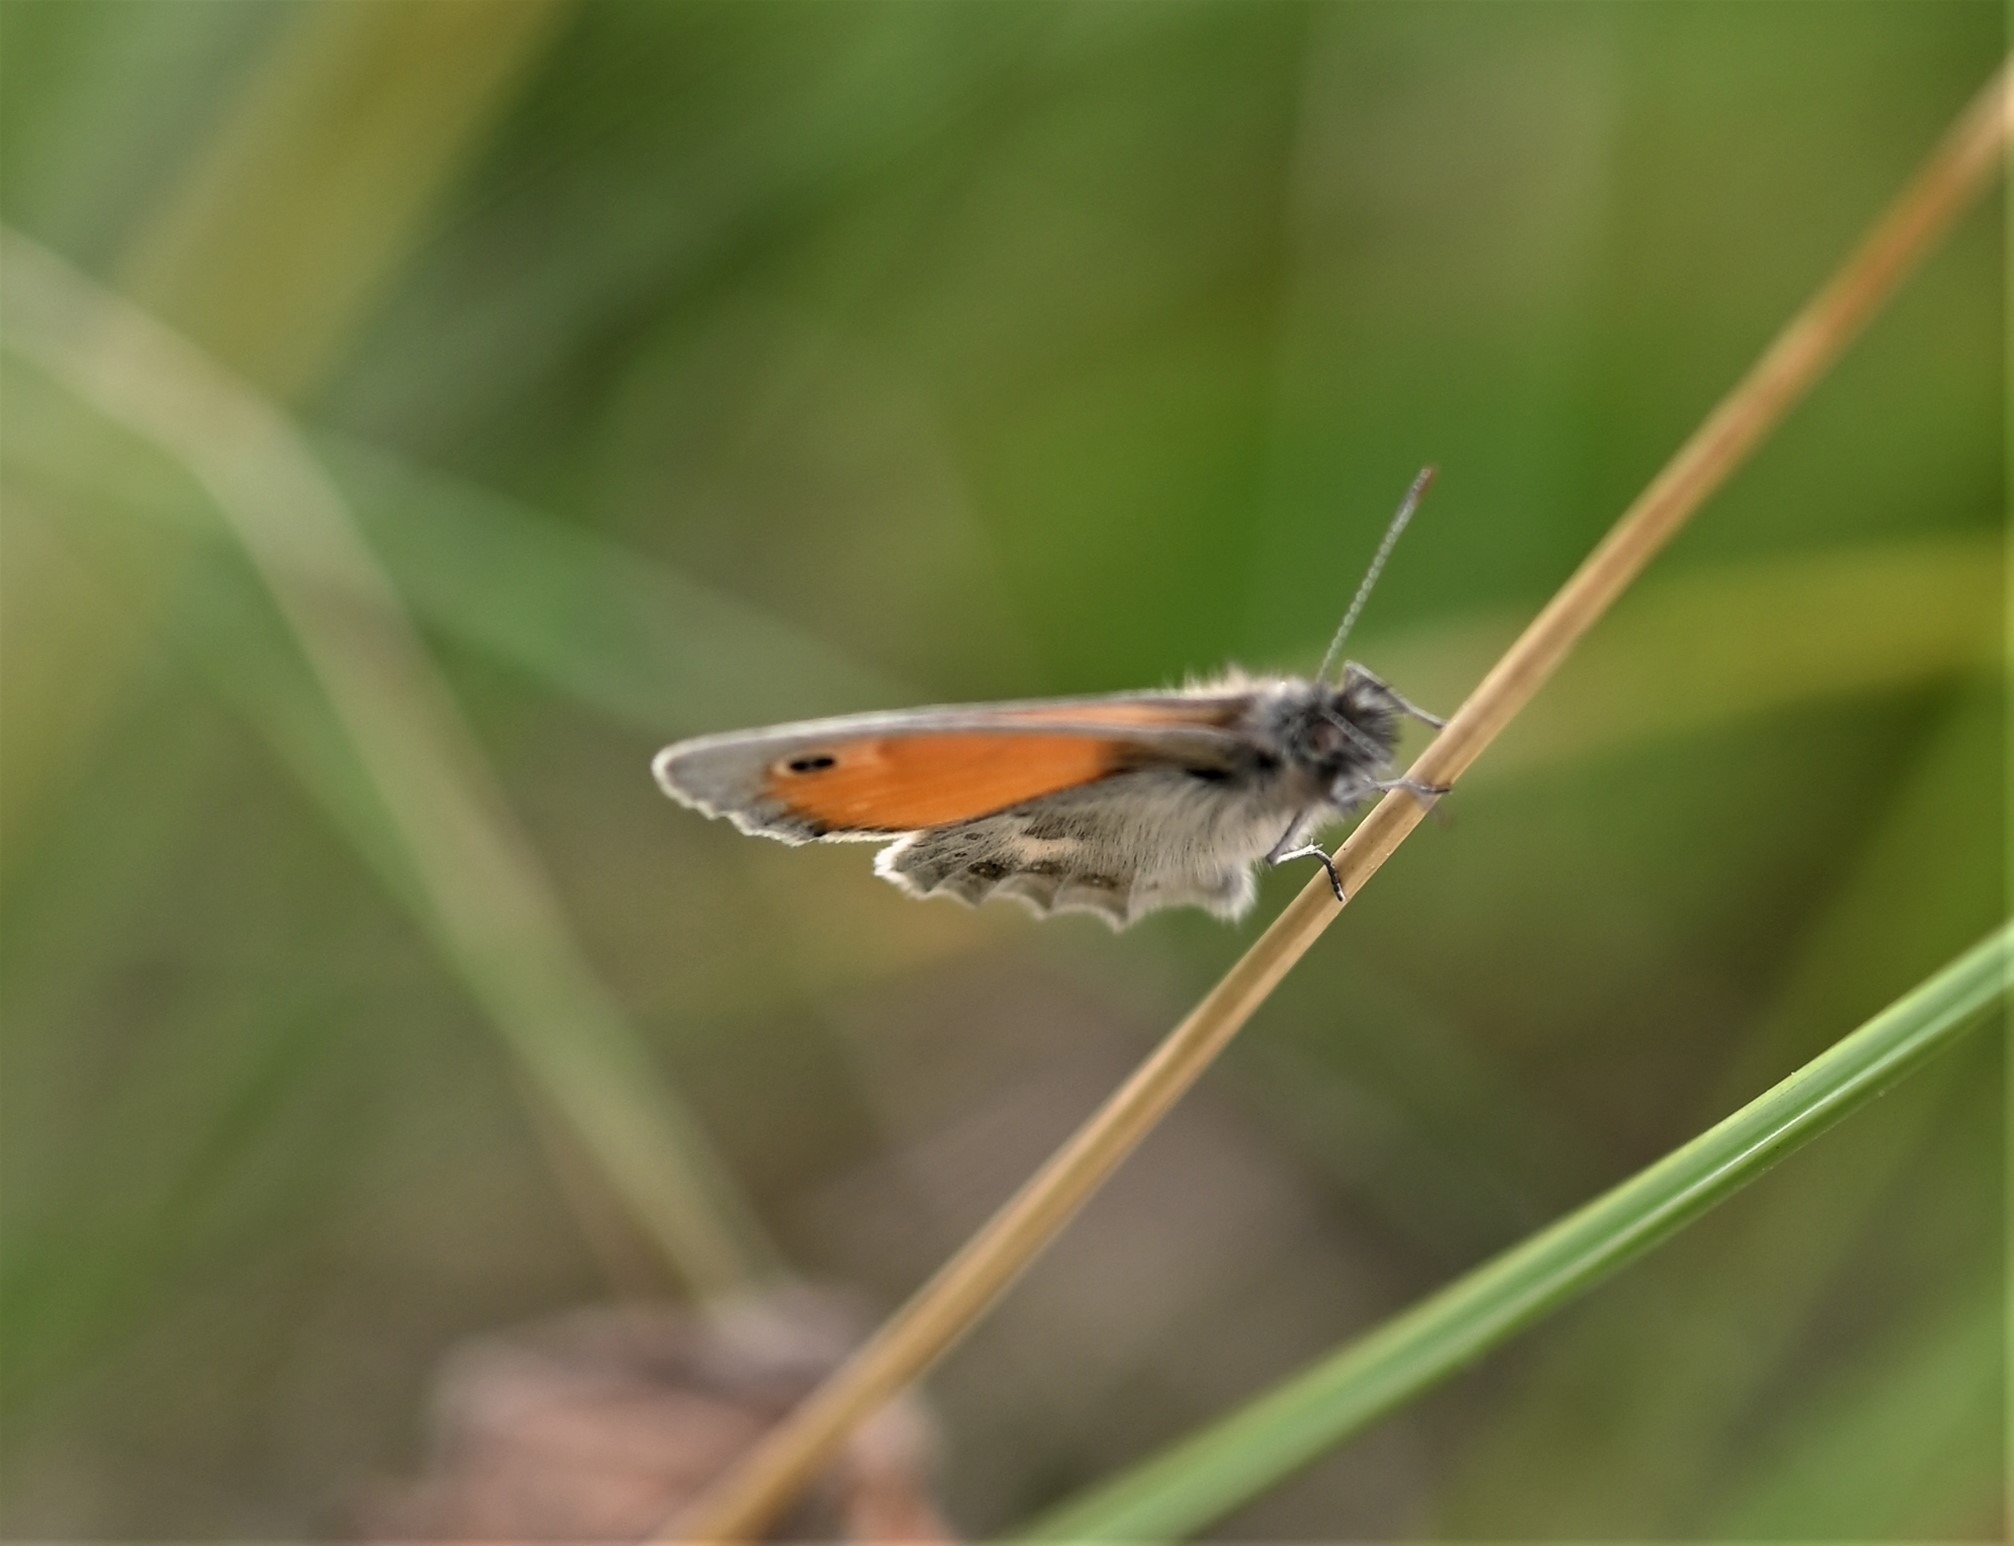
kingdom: Animalia
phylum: Arthropoda
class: Insecta
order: Lepidoptera
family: Nymphalidae
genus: Coenonympha
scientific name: Coenonympha pamphilus
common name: Okkergul randøje
